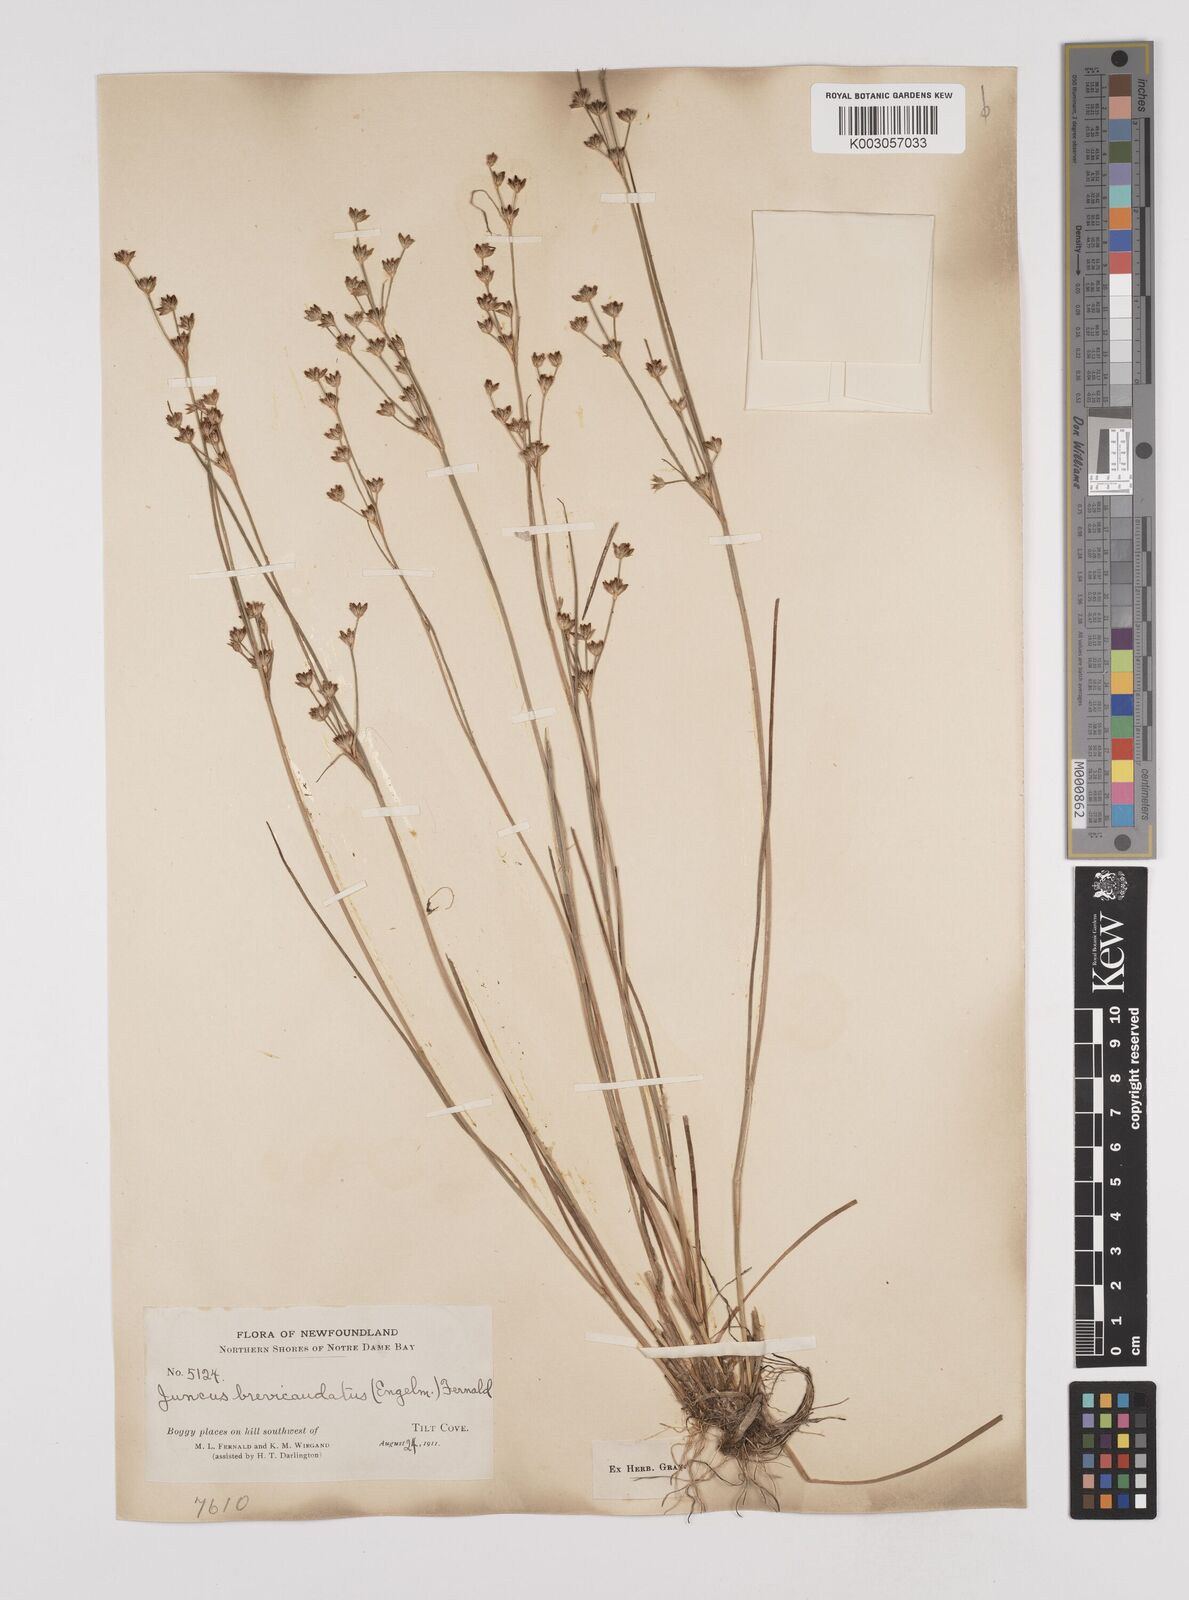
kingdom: Plantae
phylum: Tracheophyta
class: Liliopsida
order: Poales
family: Juncaceae
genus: Juncus
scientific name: Juncus canadensis
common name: Canada rush
